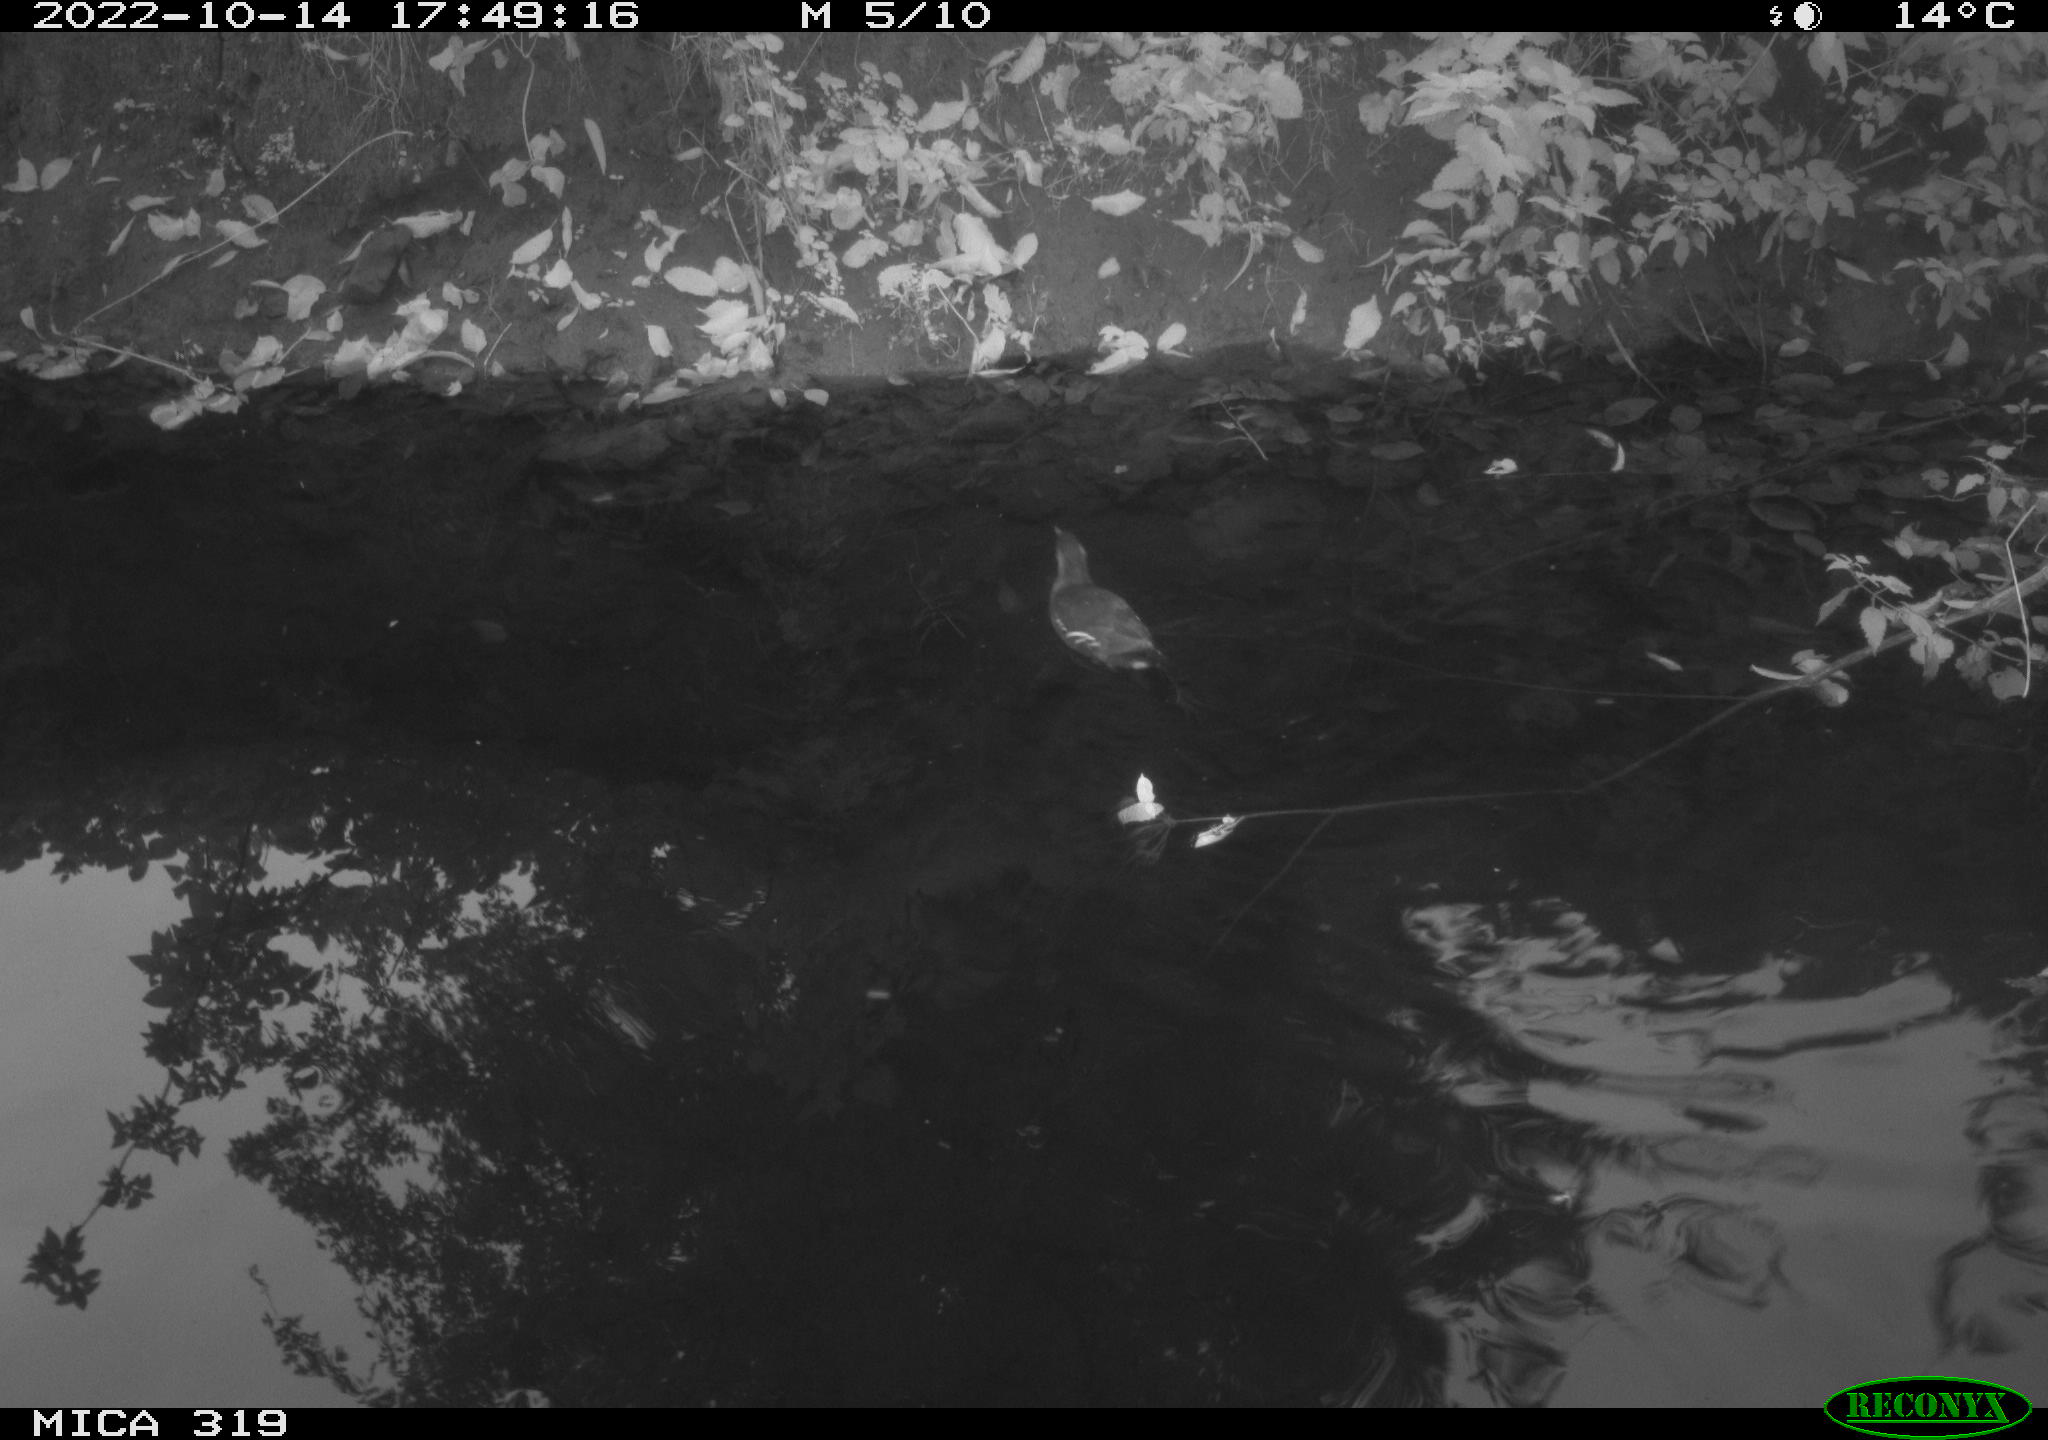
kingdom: Animalia
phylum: Chordata
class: Aves
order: Gruiformes
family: Rallidae
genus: Gallinula
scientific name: Gallinula chloropus
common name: Common moorhen
